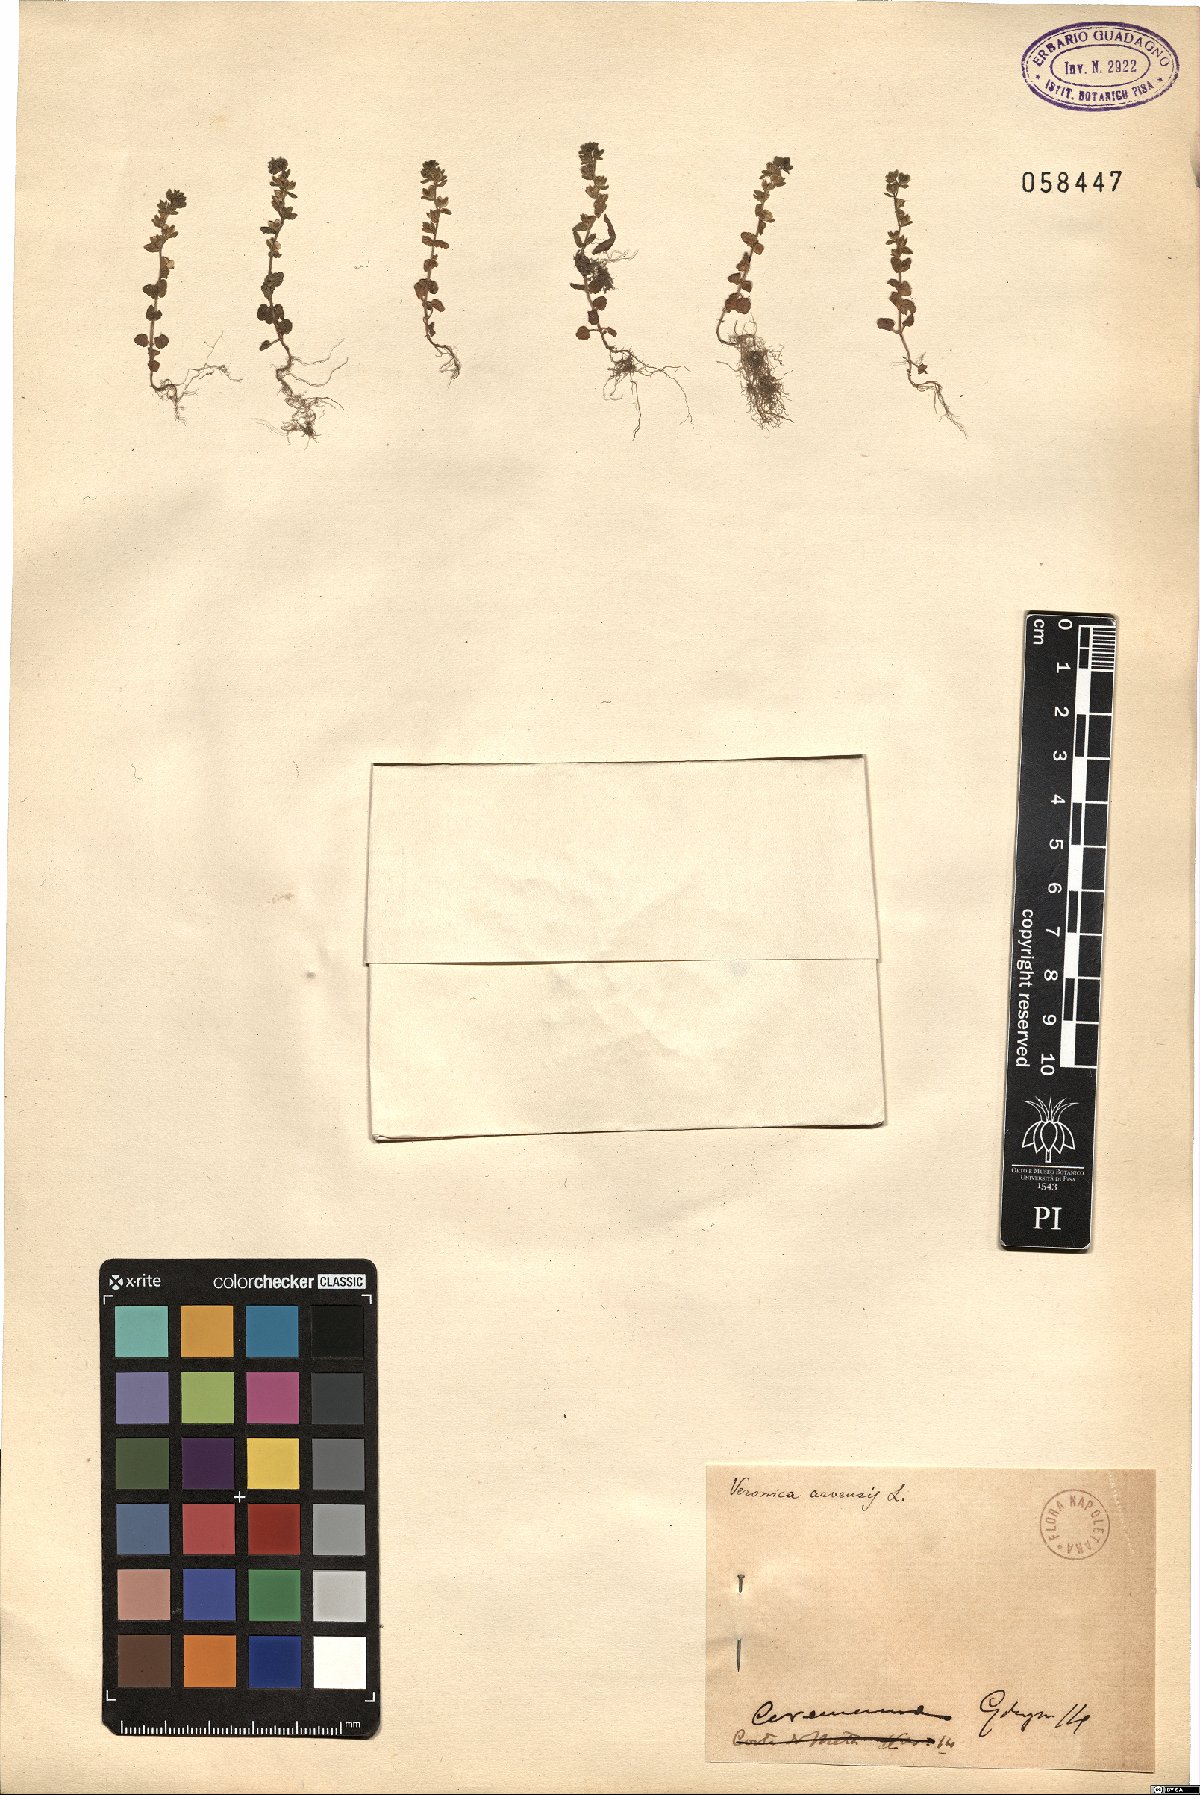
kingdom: Plantae
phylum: Tracheophyta
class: Magnoliopsida
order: Lamiales
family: Plantaginaceae
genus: Veronica
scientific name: Veronica arvensis
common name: Corn speedwell
